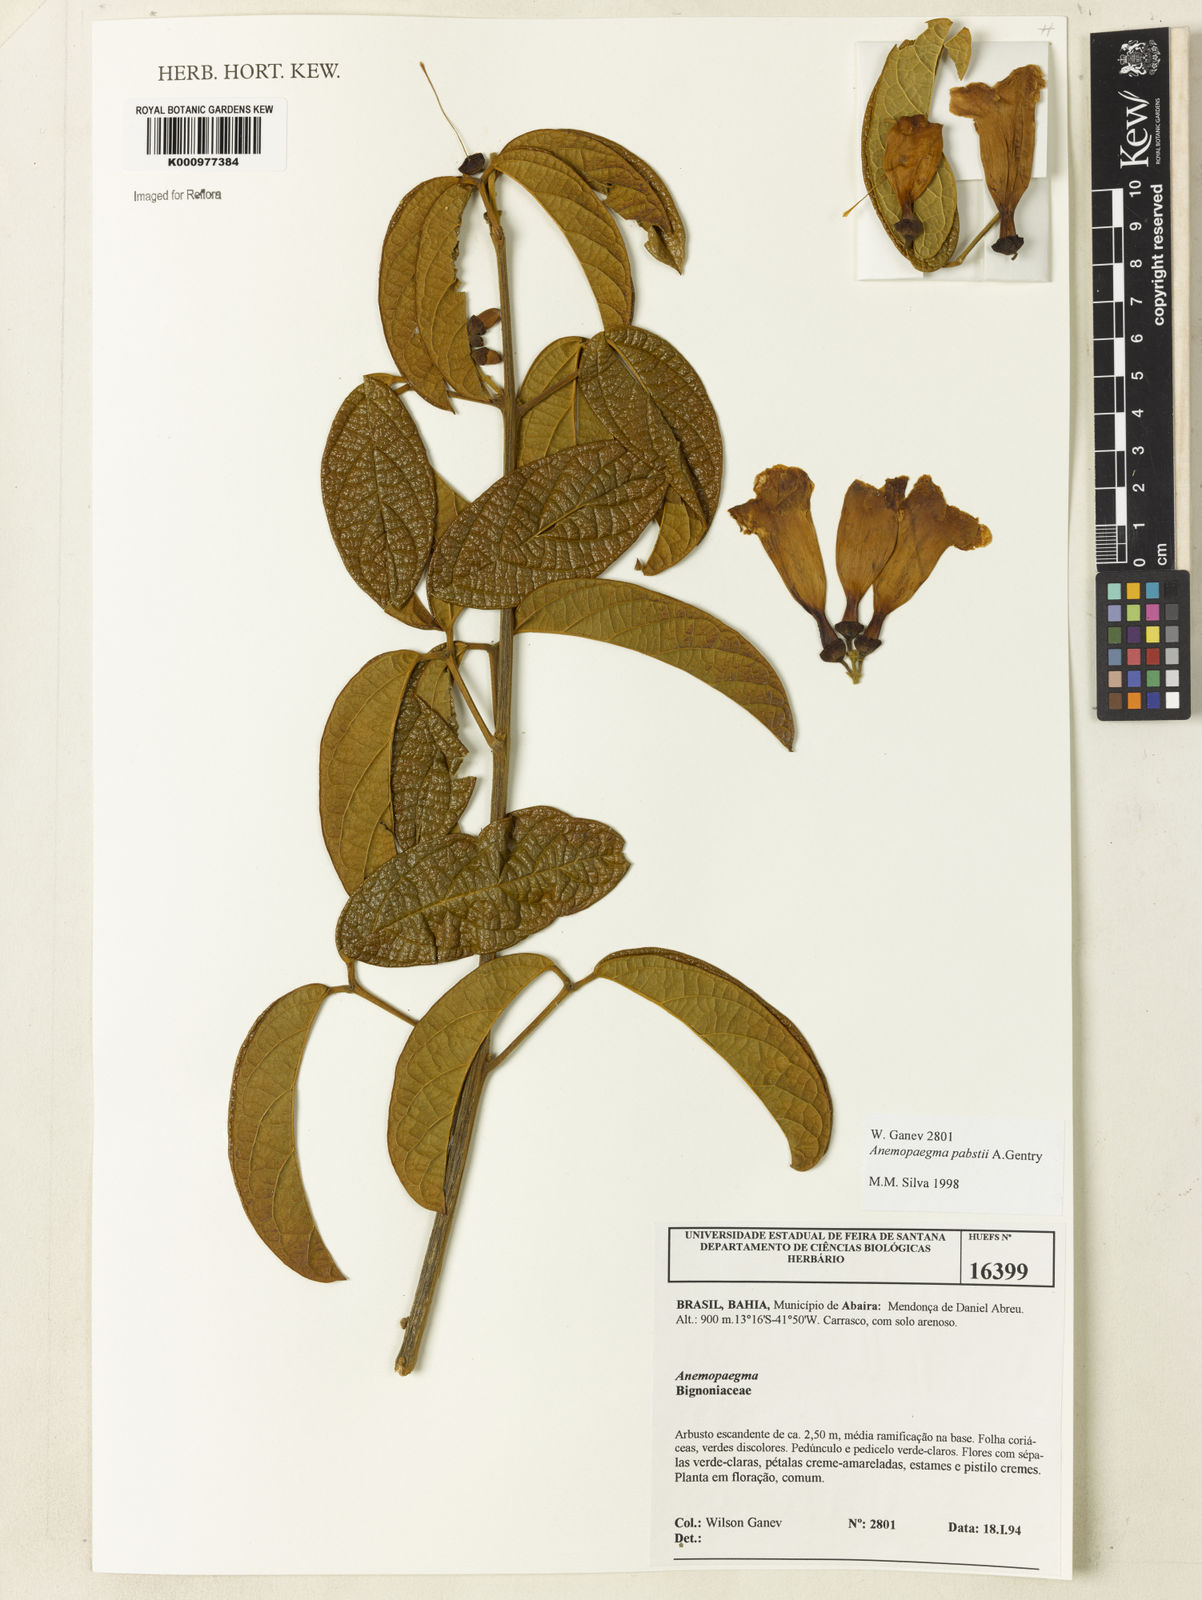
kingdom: Plantae
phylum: Tracheophyta
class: Magnoliopsida
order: Lamiales
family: Bignoniaceae
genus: Anemopaegma
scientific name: Anemopaegma pabstii
